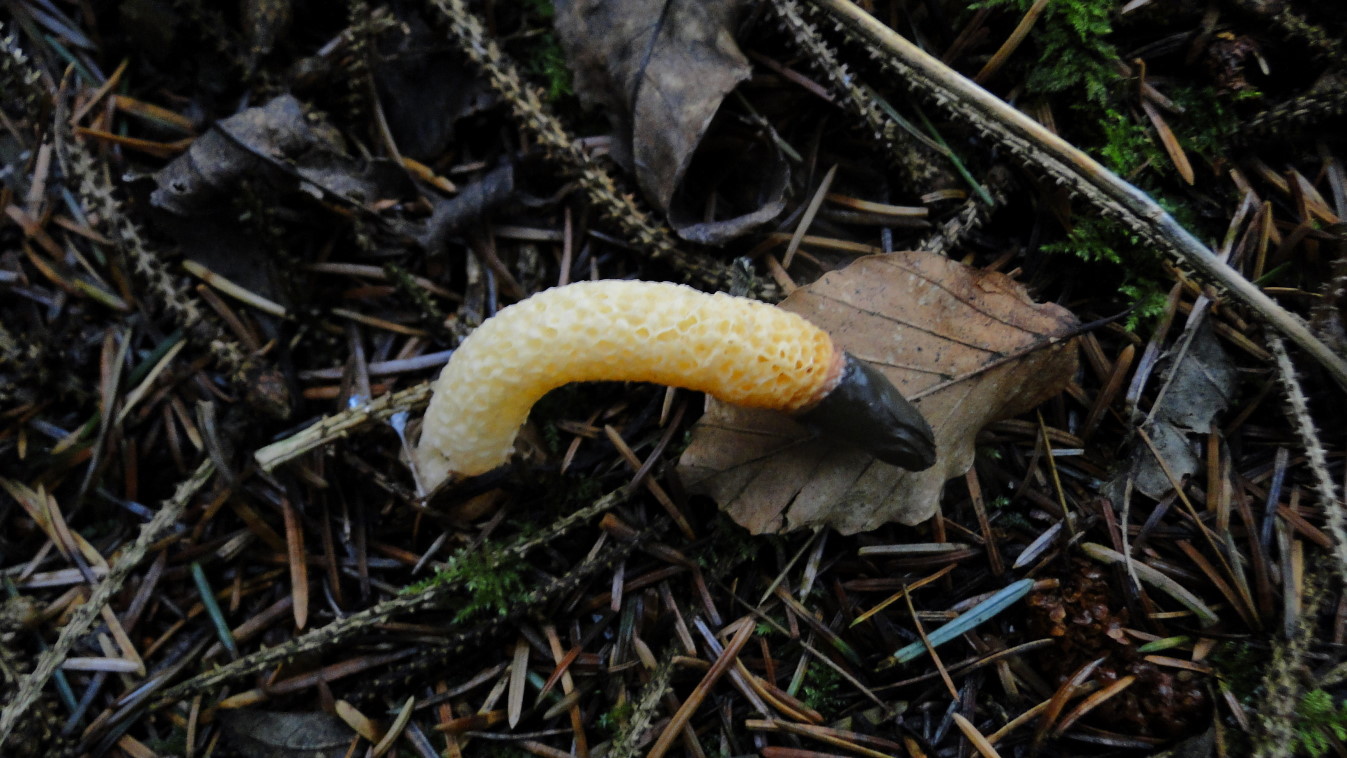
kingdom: Fungi
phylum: Basidiomycota
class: Agaricomycetes
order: Phallales
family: Phallaceae
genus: Mutinus
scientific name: Mutinus caninus
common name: hunde-stinksvamp
